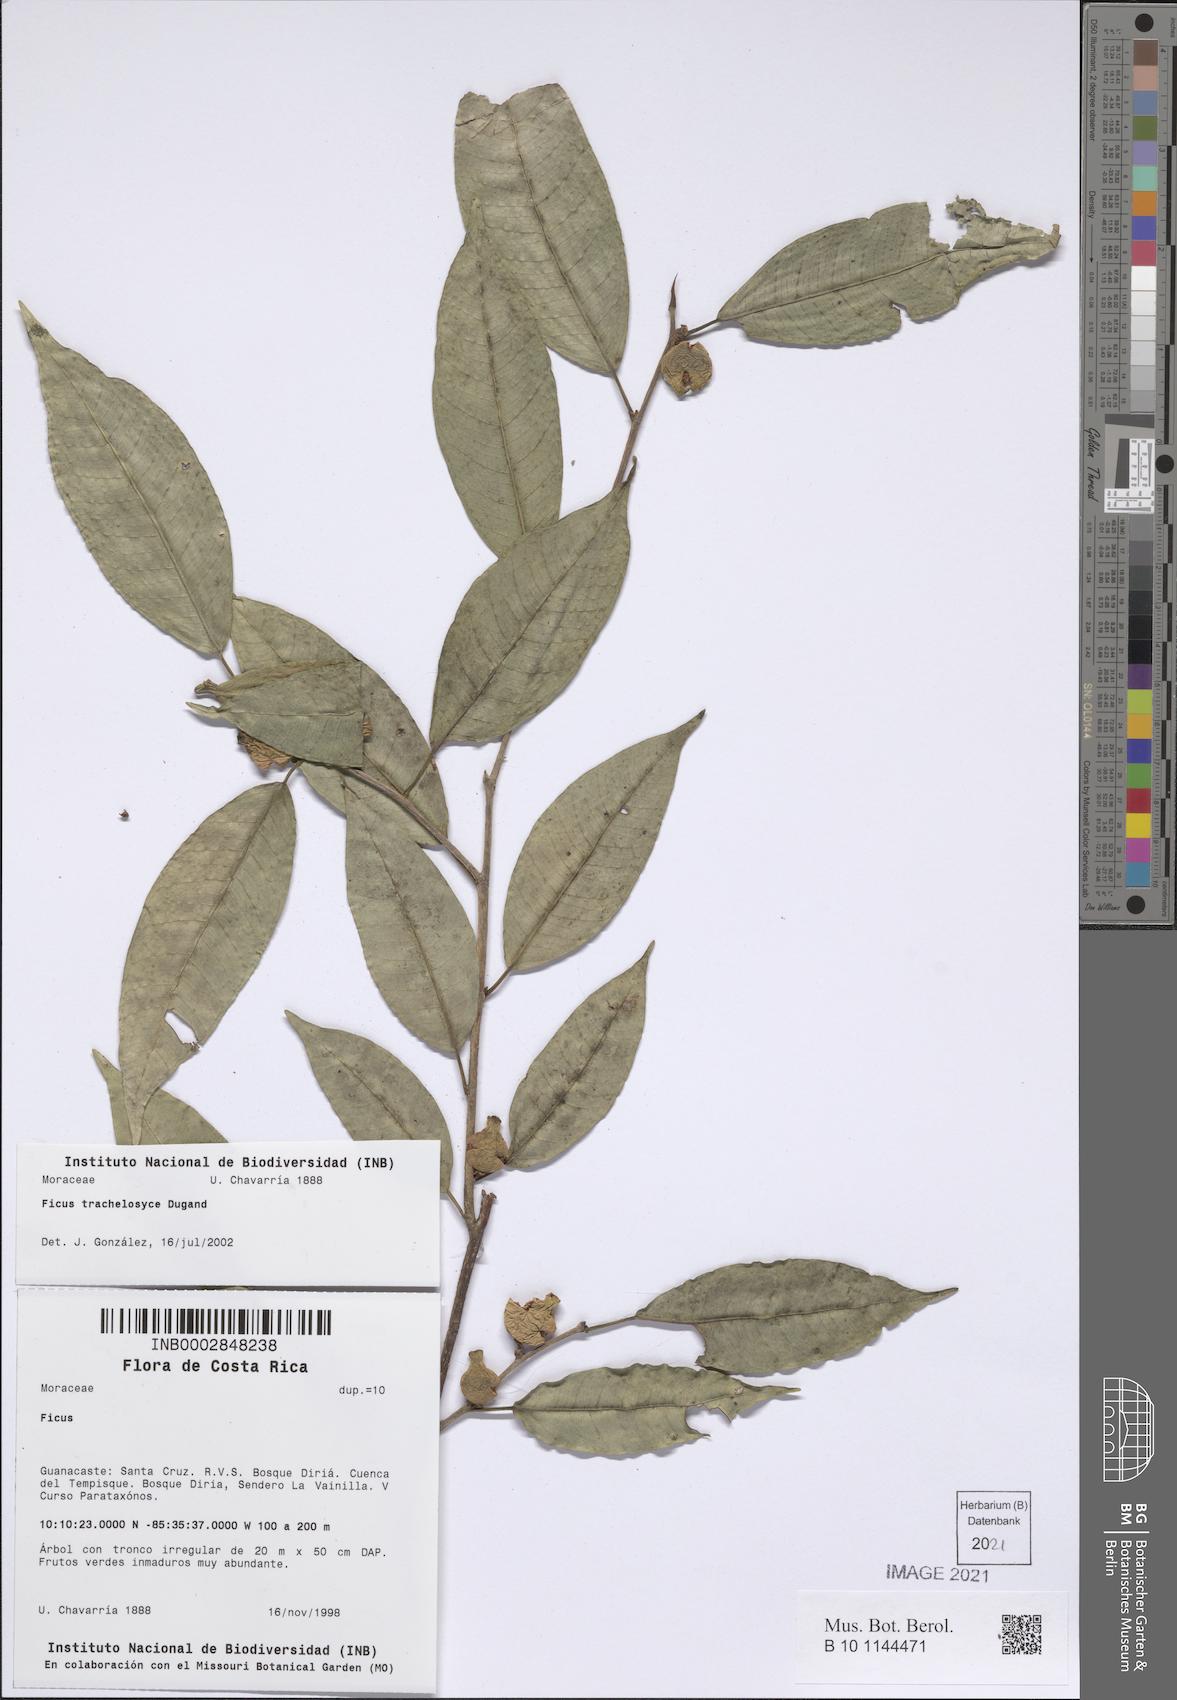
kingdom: Plantae
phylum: Tracheophyta
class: Magnoliopsida
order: Rosales
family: Moraceae
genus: Ficus
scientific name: Ficus pertusa
